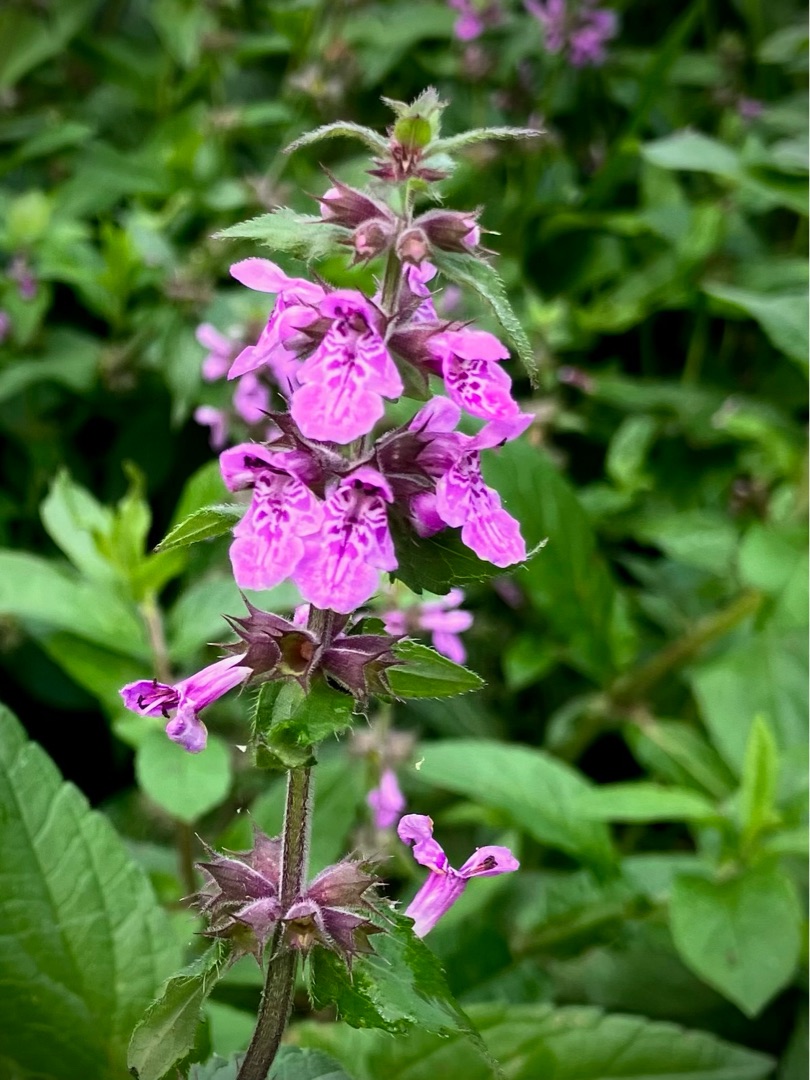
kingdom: Plantae
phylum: Tracheophyta
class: Magnoliopsida
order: Lamiales
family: Lamiaceae
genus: Stachys
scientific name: Stachys palustris
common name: Kær-galtetand
